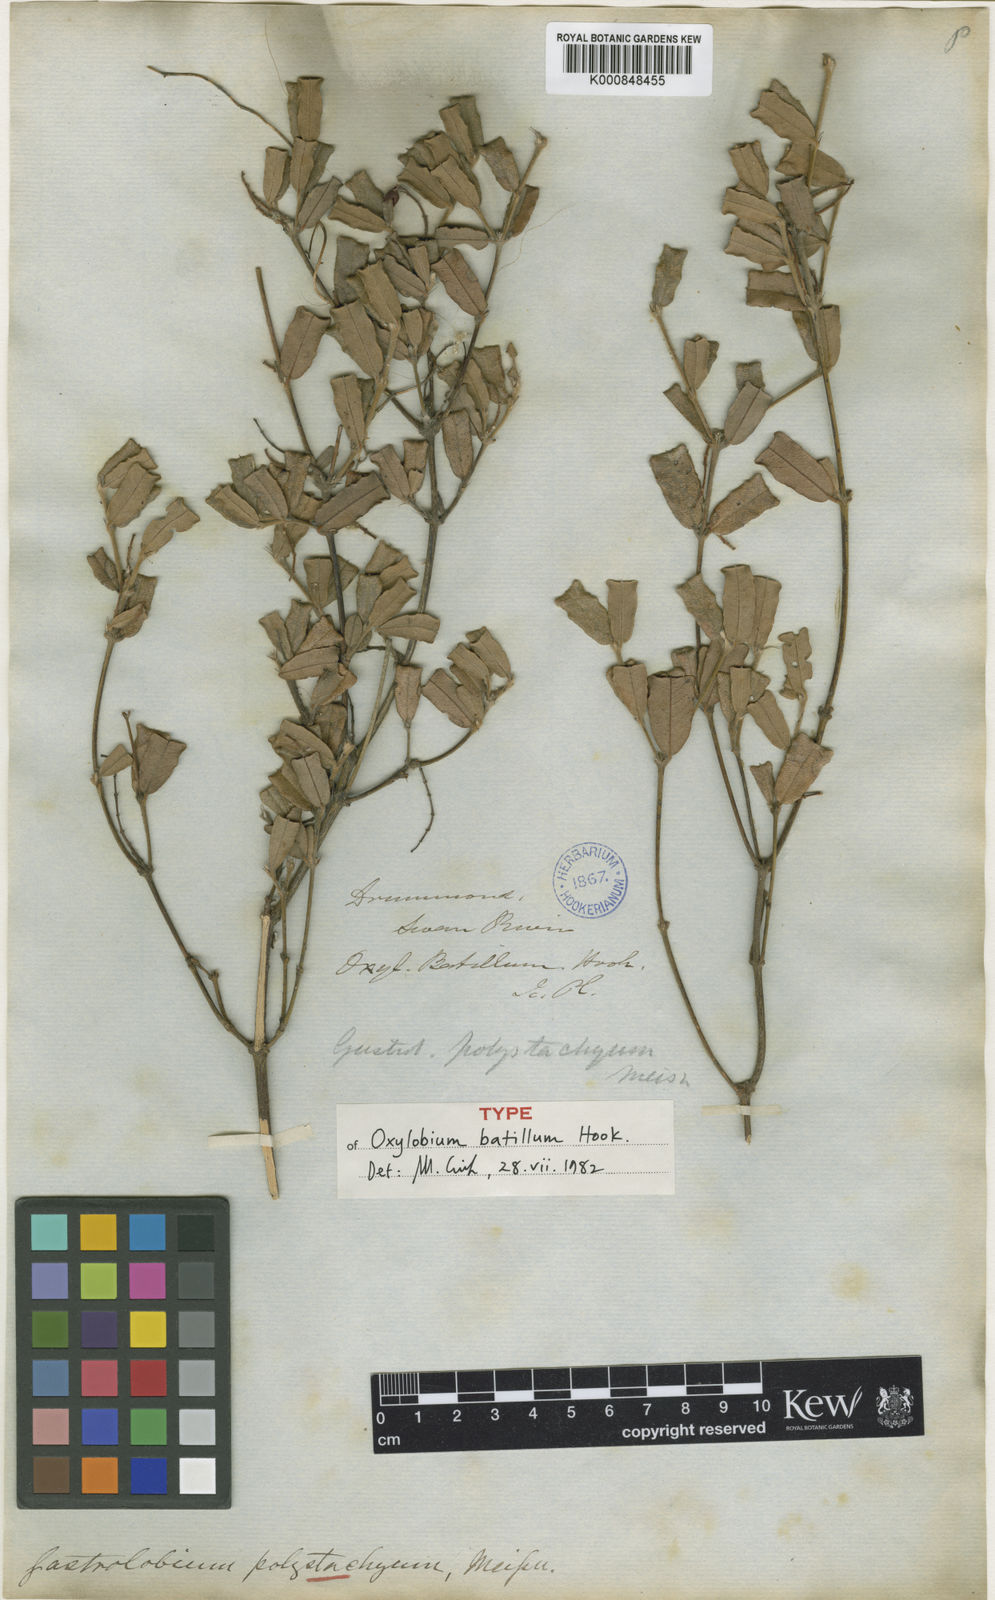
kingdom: Plantae
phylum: Tracheophyta
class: Magnoliopsida
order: Fabales
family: Fabaceae
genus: Gastrolobium
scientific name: Gastrolobium polystachyum
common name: Hill river poison
